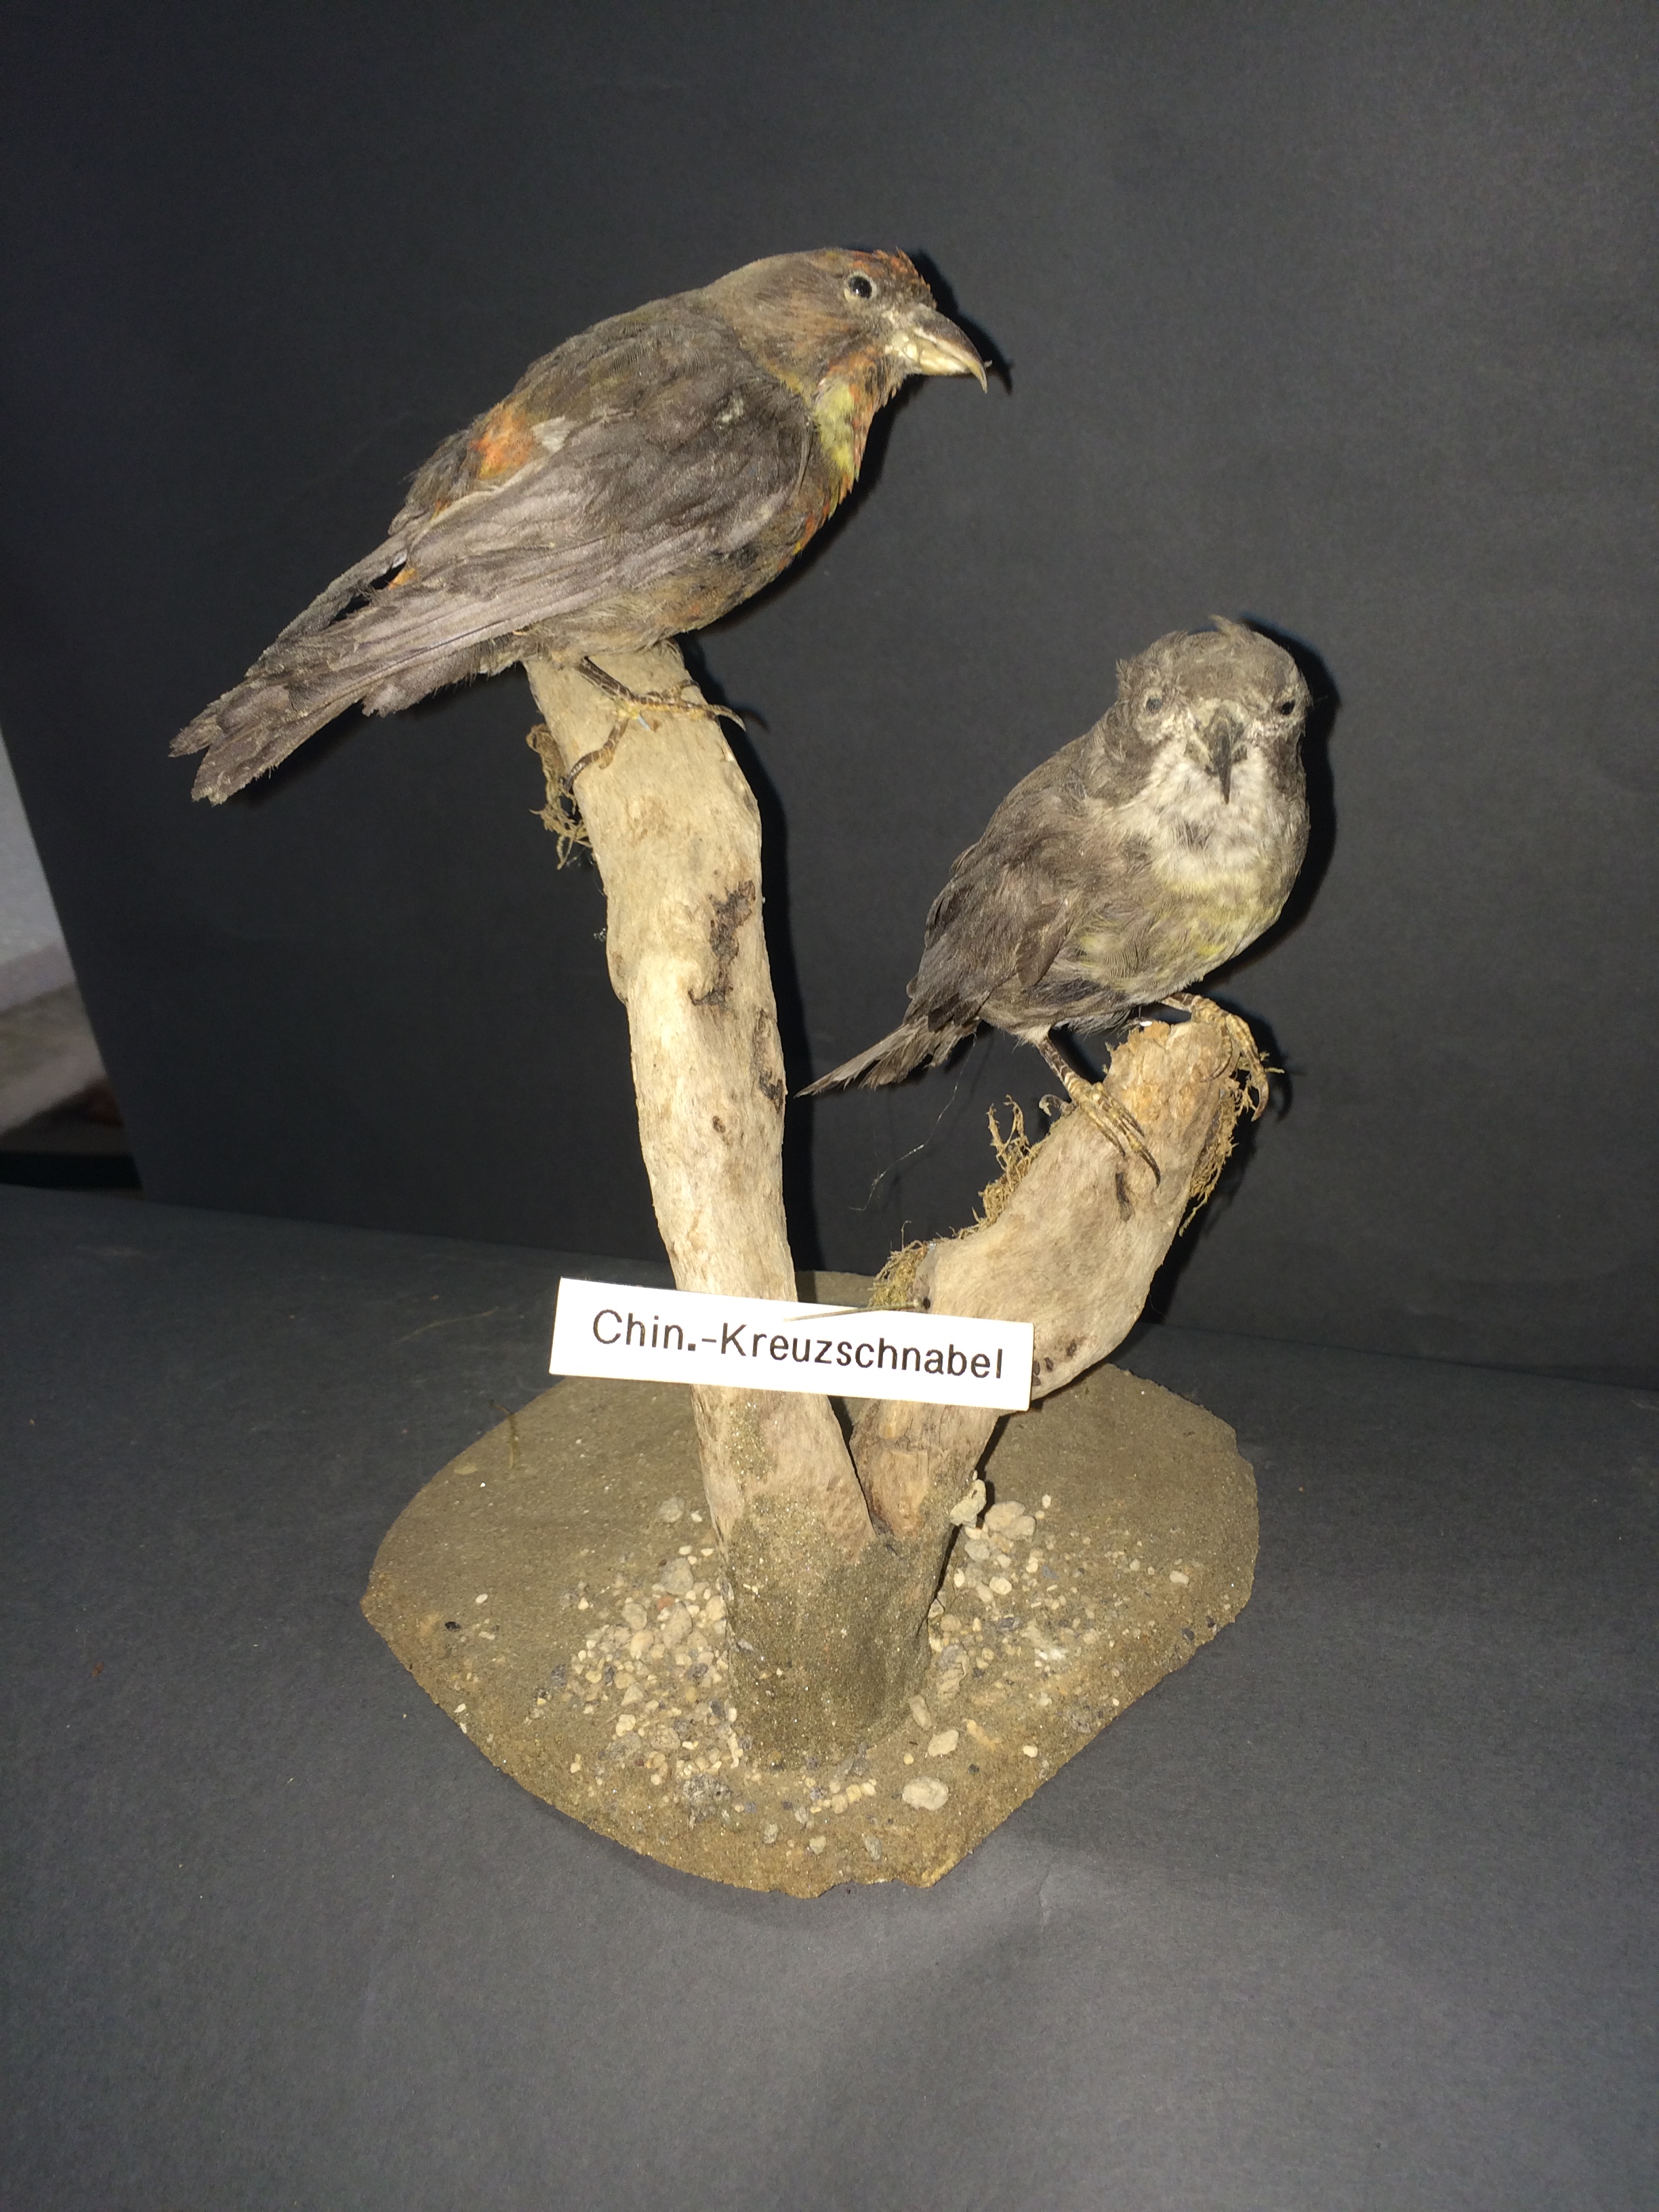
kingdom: Animalia
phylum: Chordata
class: Aves
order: Passeriformes
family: Fringillidae
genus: Loxia
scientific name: Loxia curvirostra
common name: Red crossbill
